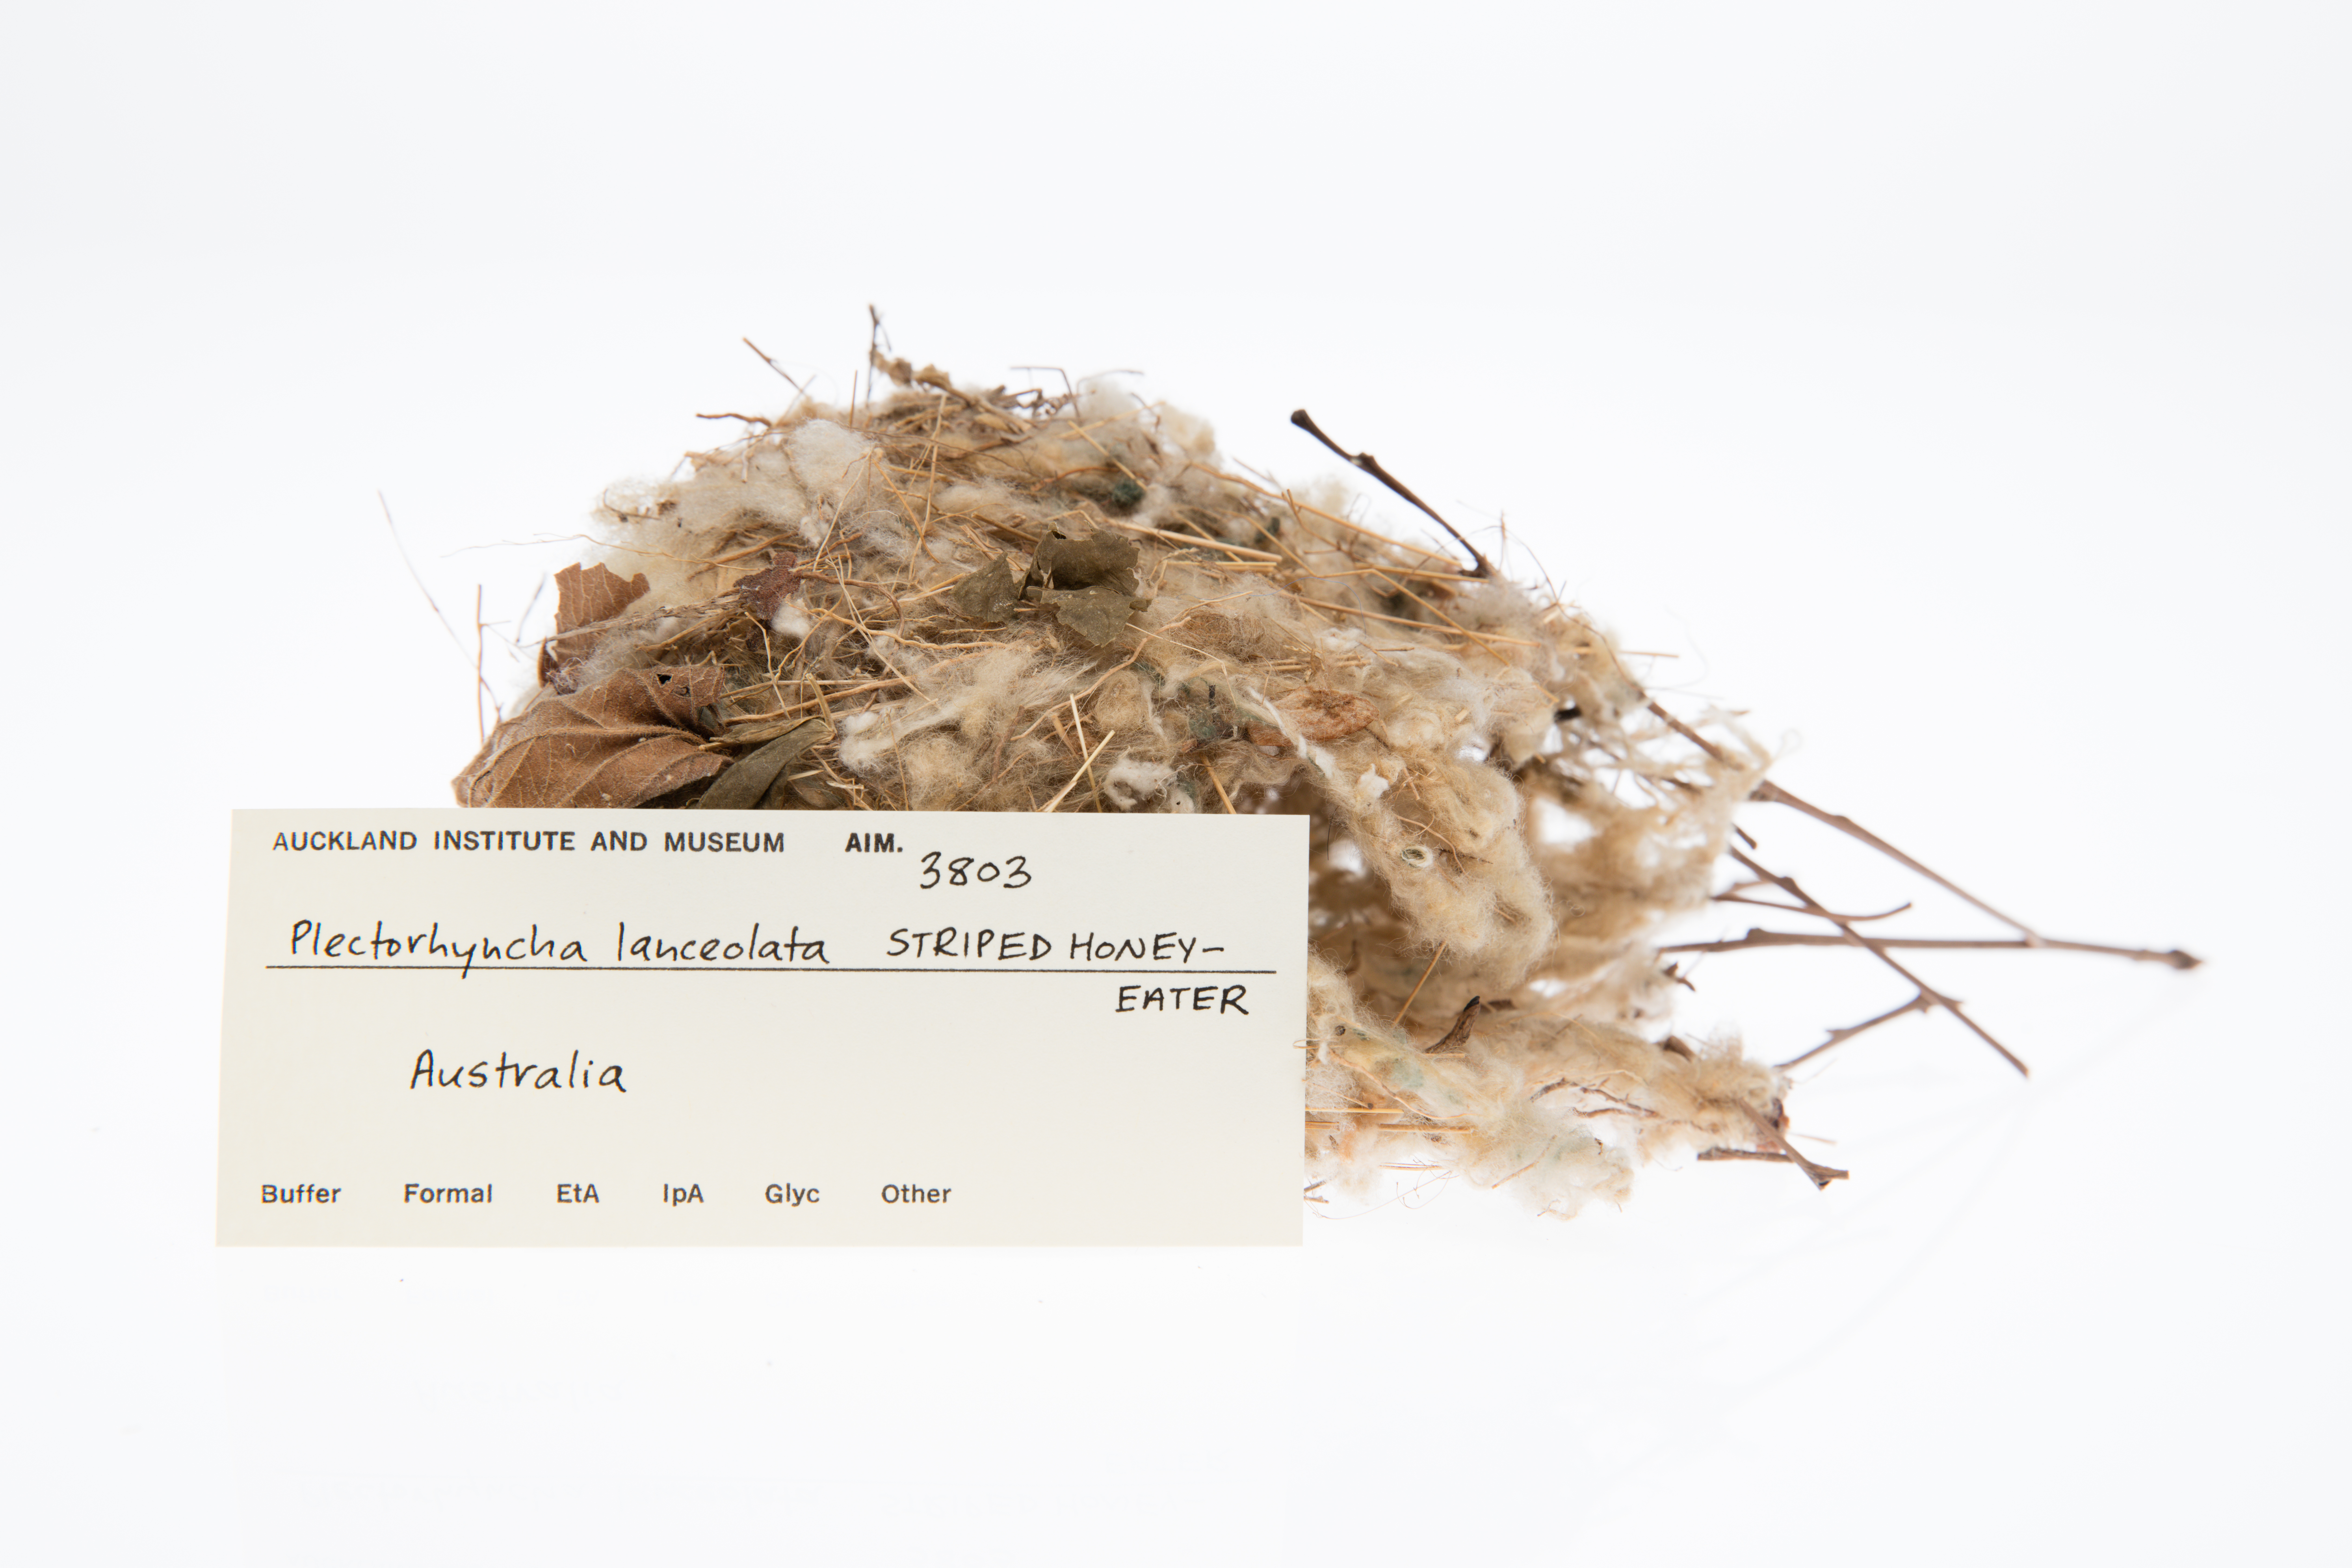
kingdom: Animalia
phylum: Chordata
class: Aves
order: Passeriformes
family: Meliphagidae
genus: Plectorhyncha
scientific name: Plectorhyncha lanceolata
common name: Striped honeyeater
